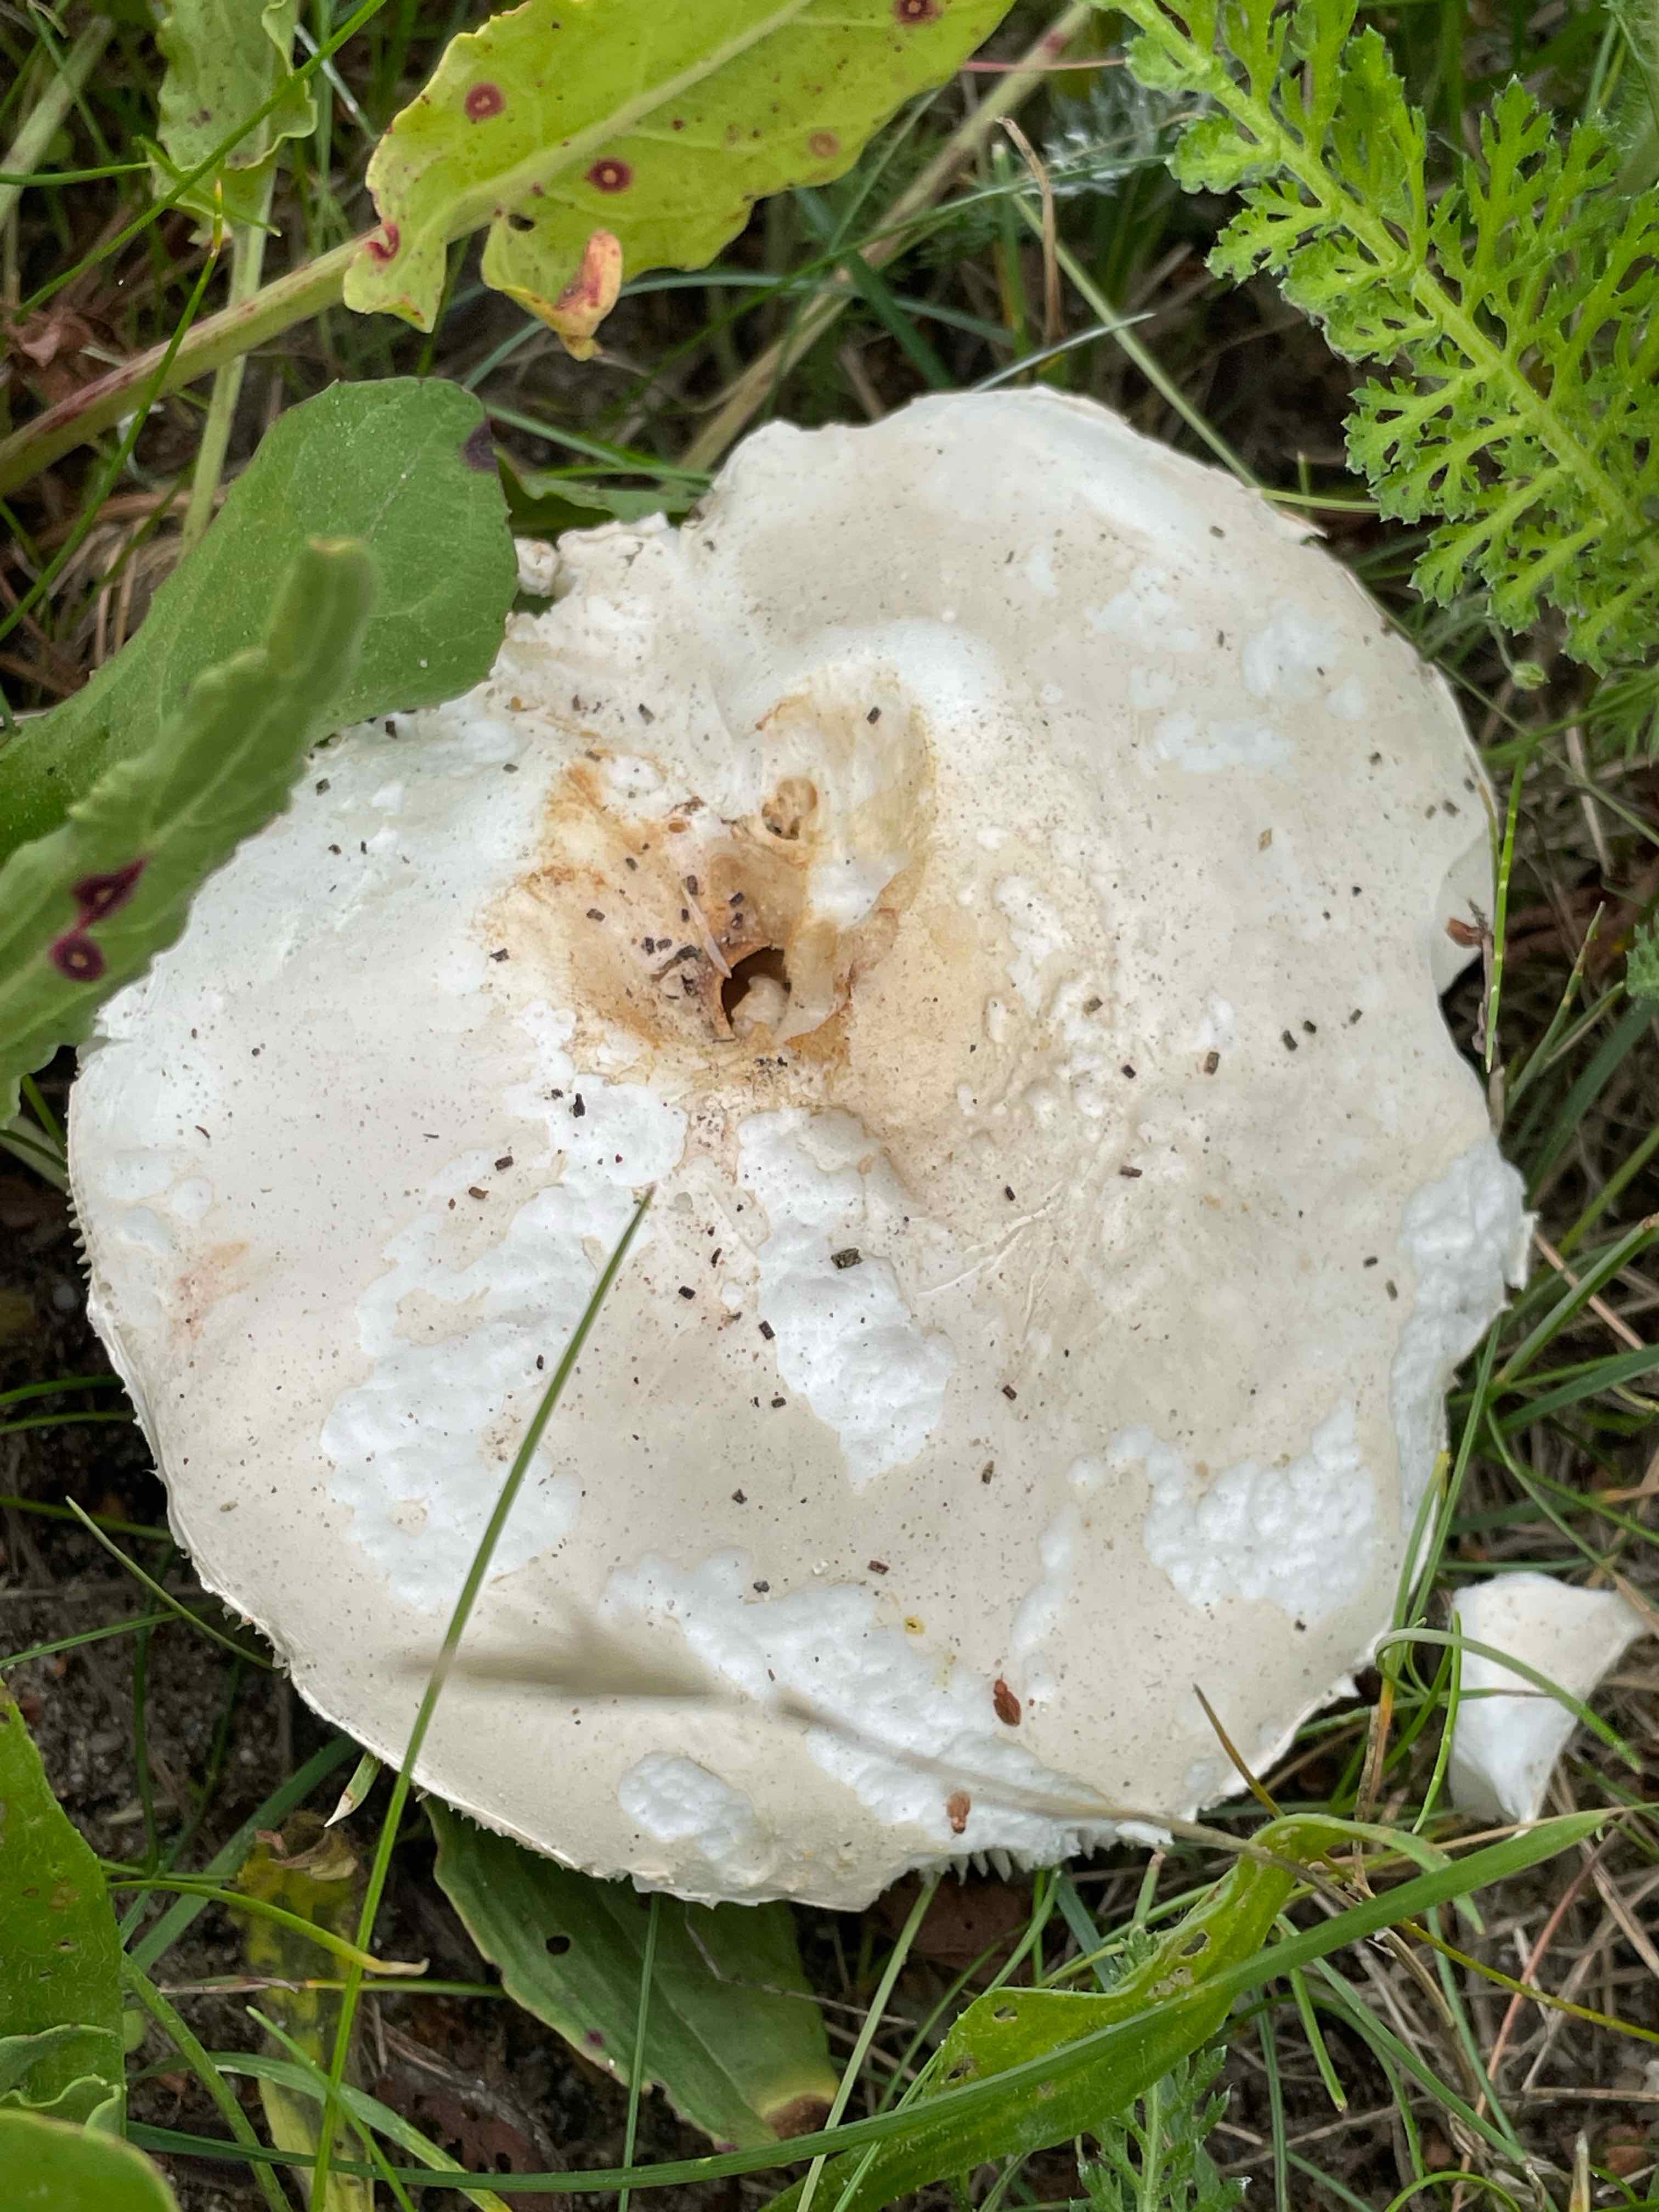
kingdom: Fungi
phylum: Basidiomycota
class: Agaricomycetes
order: Agaricales
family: Agaricaceae
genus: Leucoagaricus
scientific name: Leucoagaricus leucothites
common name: rosabladet silkehat
